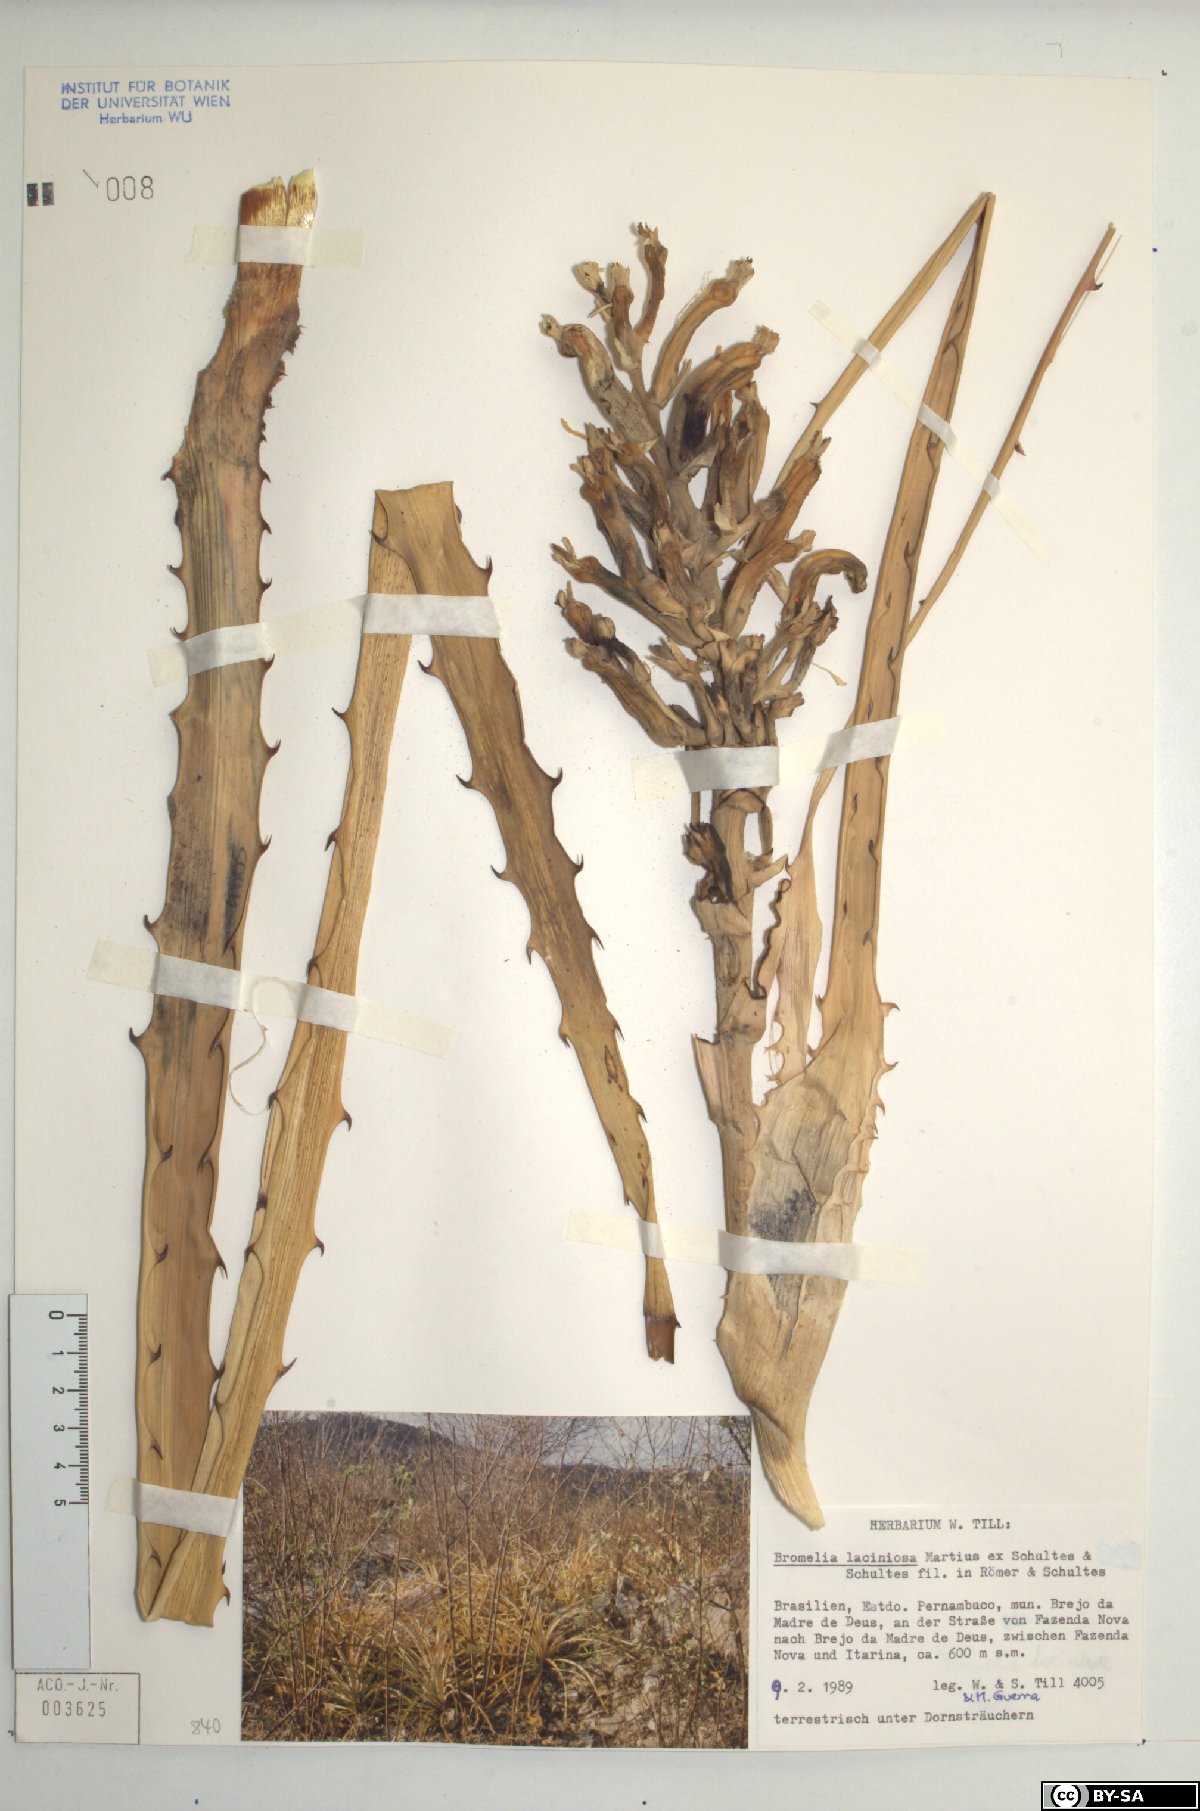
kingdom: Plantae
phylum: Tracheophyta
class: Liliopsida
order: Poales
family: Bromeliaceae
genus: Bromelia
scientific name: Bromelia laciniosa
